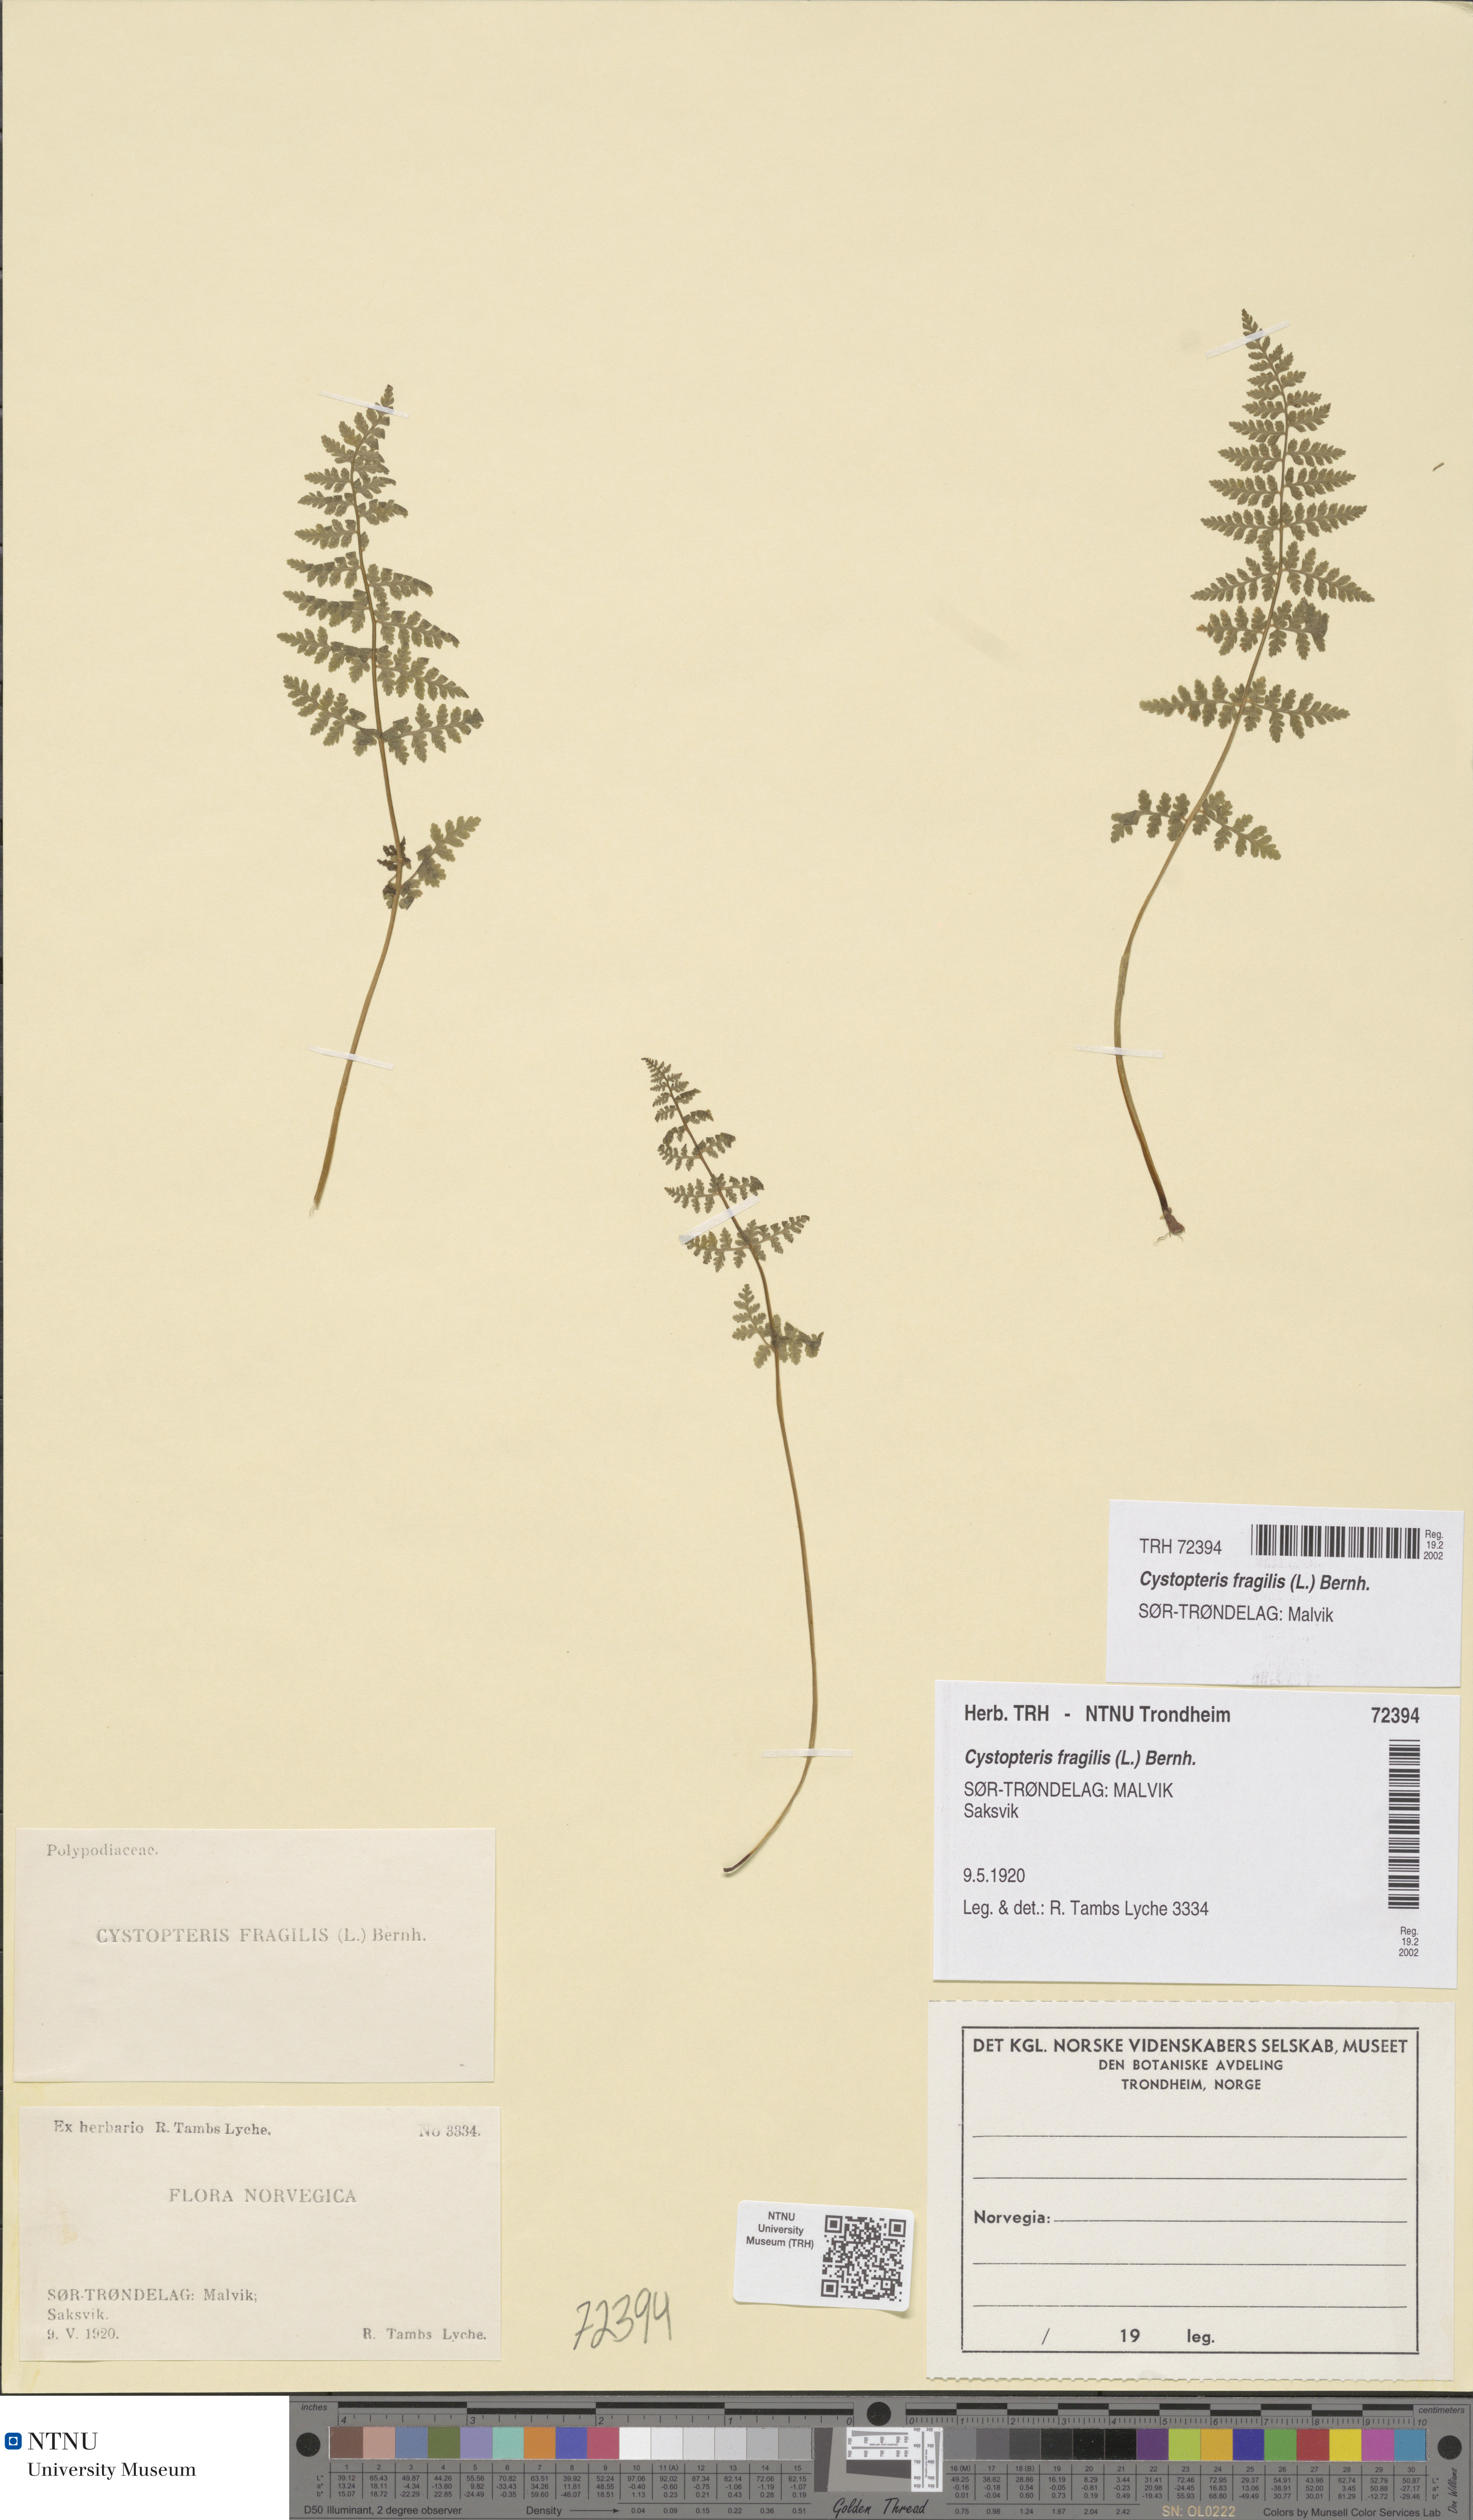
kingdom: Plantae
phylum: Tracheophyta
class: Polypodiopsida
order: Polypodiales
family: Cystopteridaceae
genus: Cystopteris
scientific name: Cystopteris fragilis
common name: Brittle bladder fern
